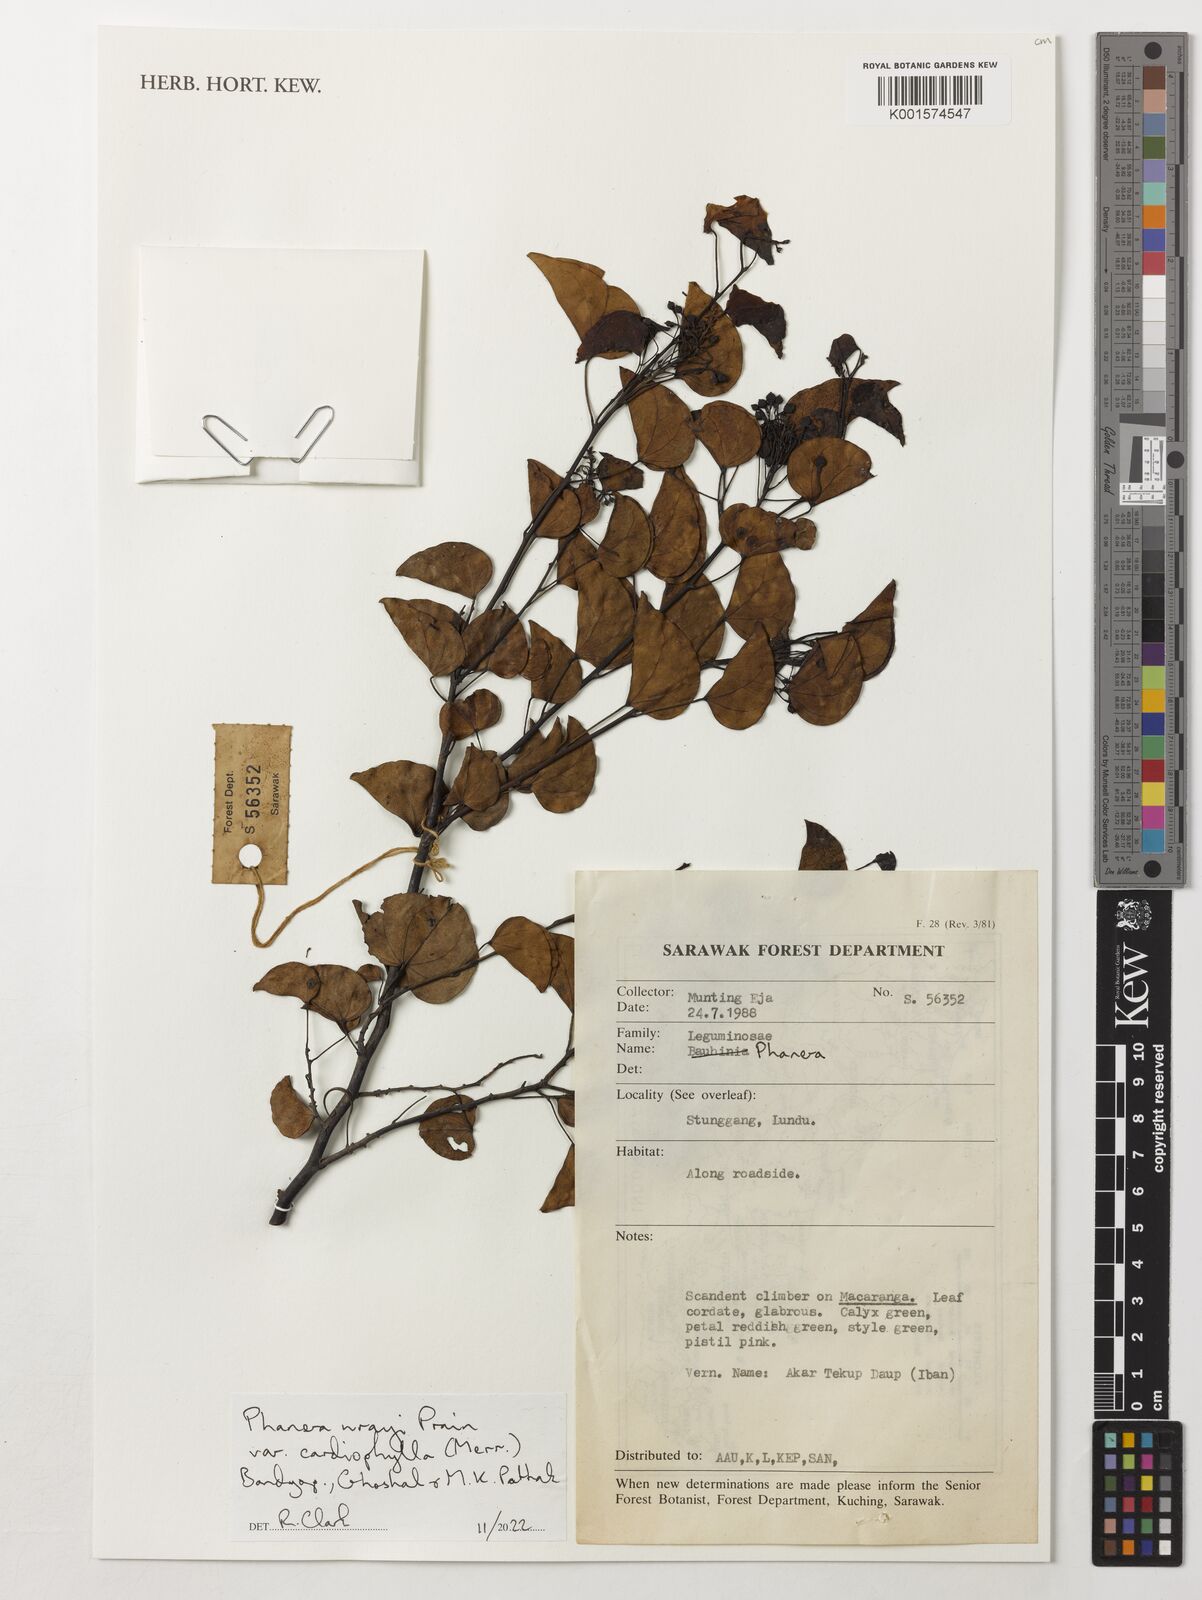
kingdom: Plantae
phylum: Tracheophyta
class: Magnoliopsida
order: Fabales
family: Fabaceae
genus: Phanera
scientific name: Phanera wrayi
